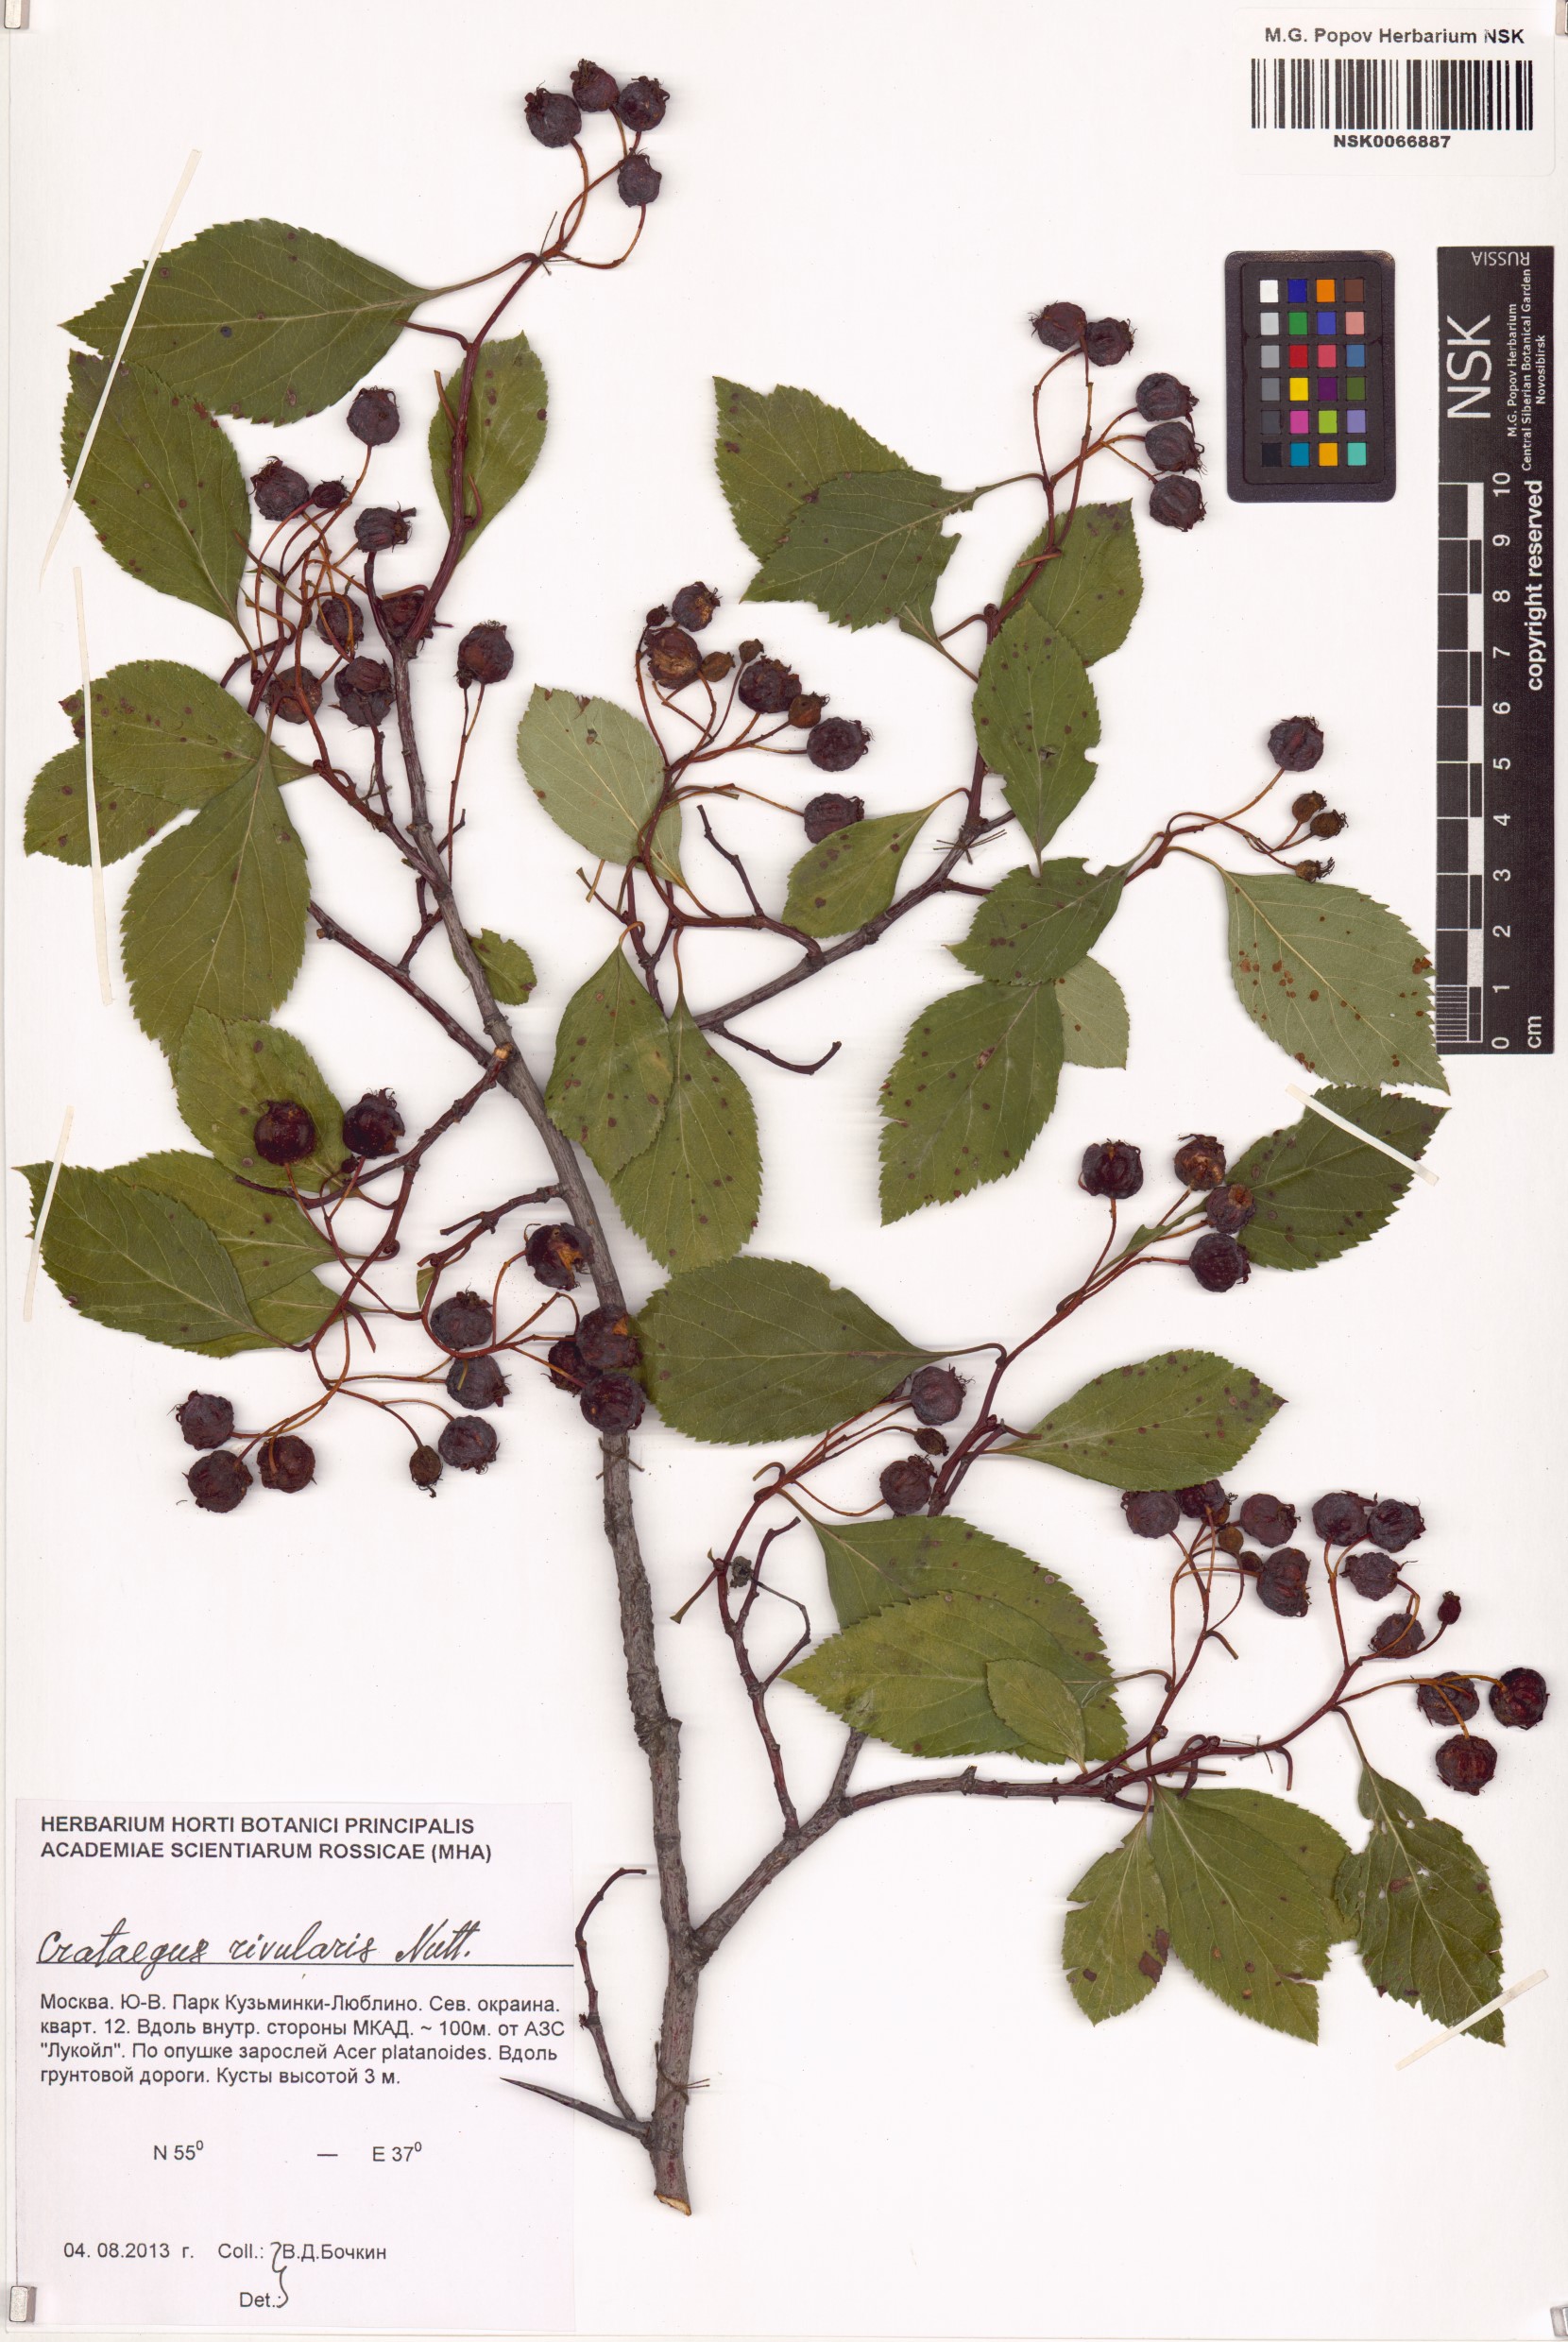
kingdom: Plantae
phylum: Tracheophyta
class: Magnoliopsida
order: Rosales
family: Rosaceae
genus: Crataegus
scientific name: Crataegus rivularis
